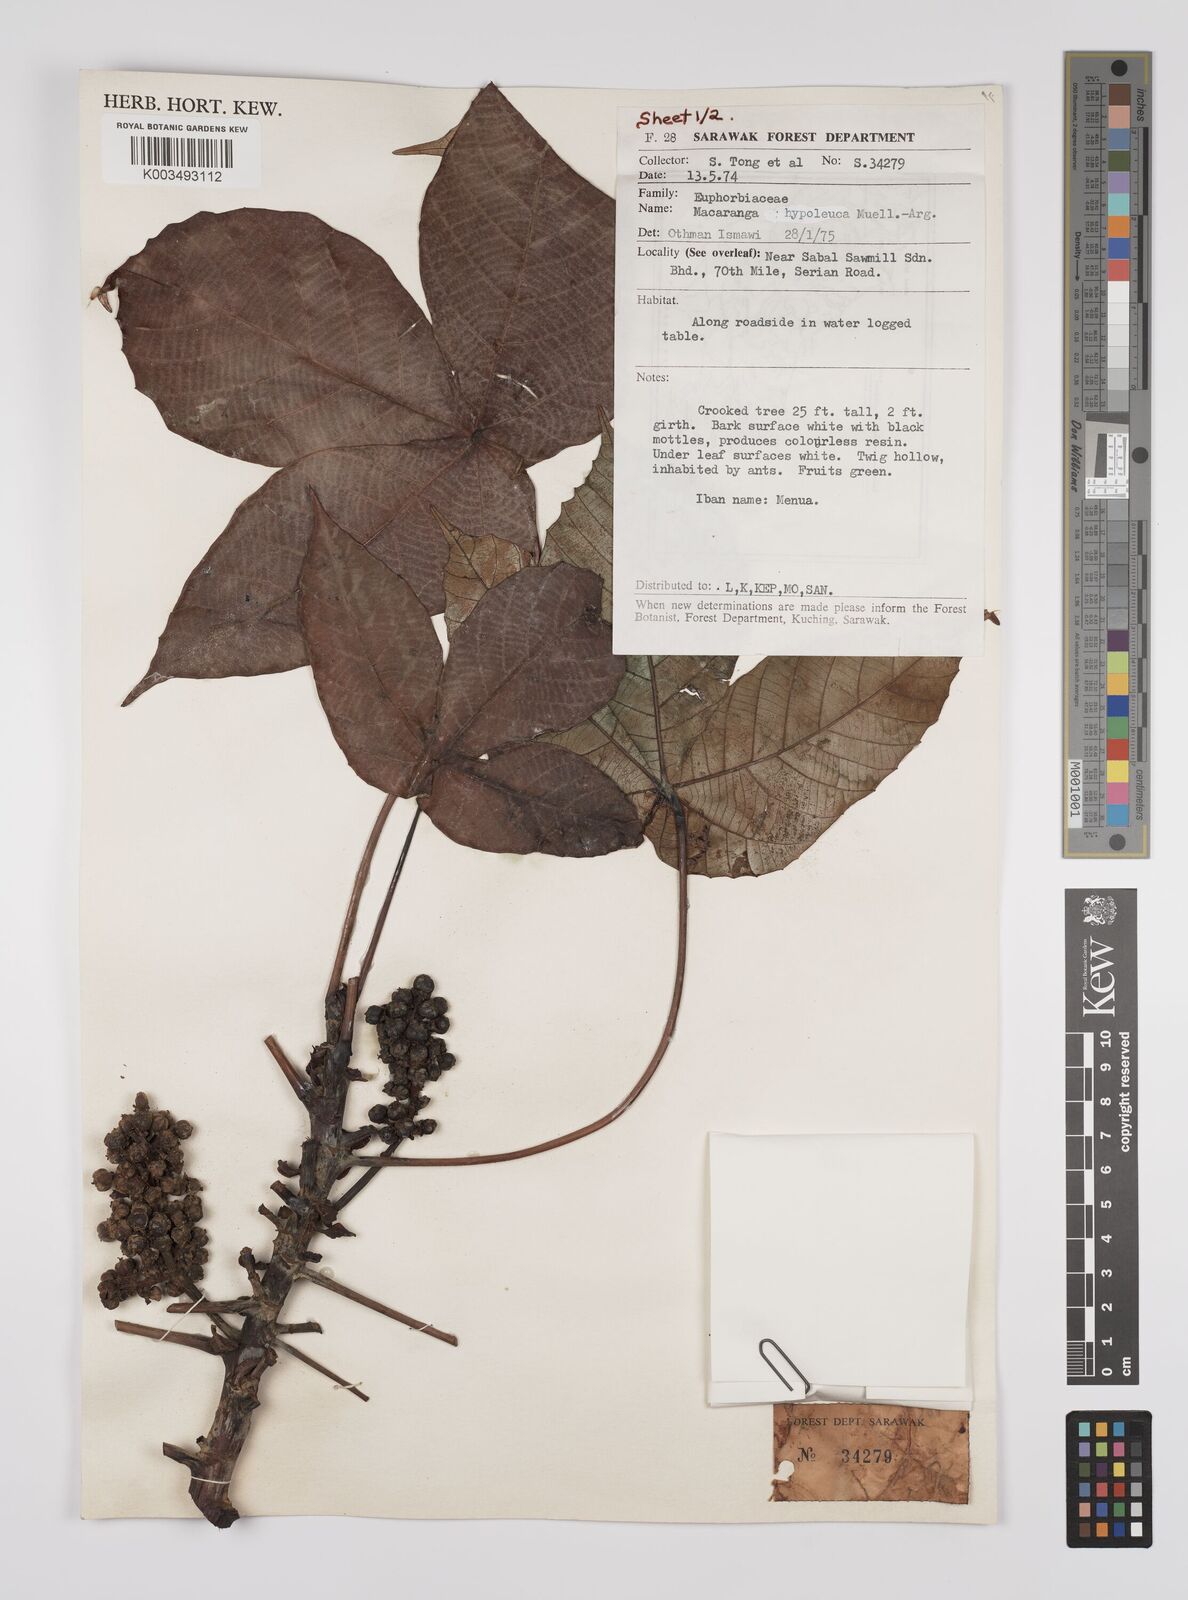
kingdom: Plantae
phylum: Tracheophyta
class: Magnoliopsida
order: Malpighiales
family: Euphorbiaceae
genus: Macaranga
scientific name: Macaranga hypoleuca
